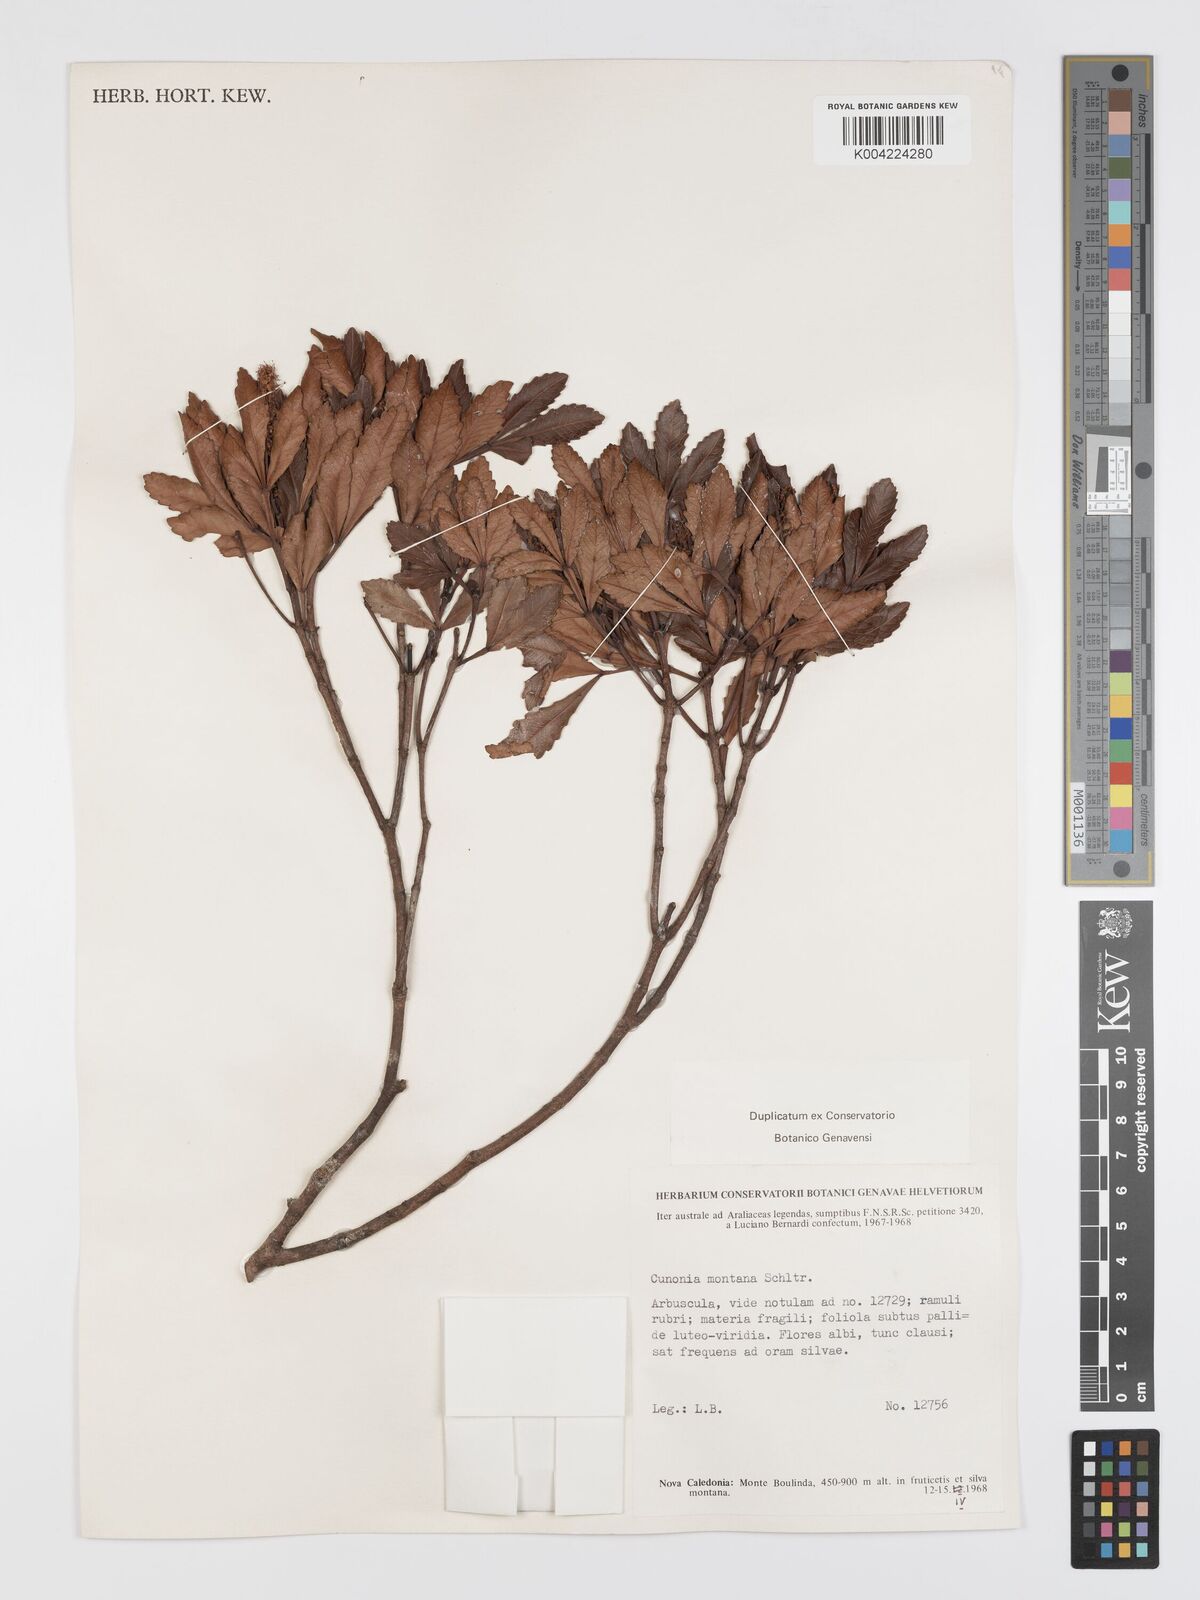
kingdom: Plantae
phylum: Tracheophyta
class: Magnoliopsida
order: Oxalidales
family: Cunoniaceae
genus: Cunonia
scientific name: Cunonia montana
